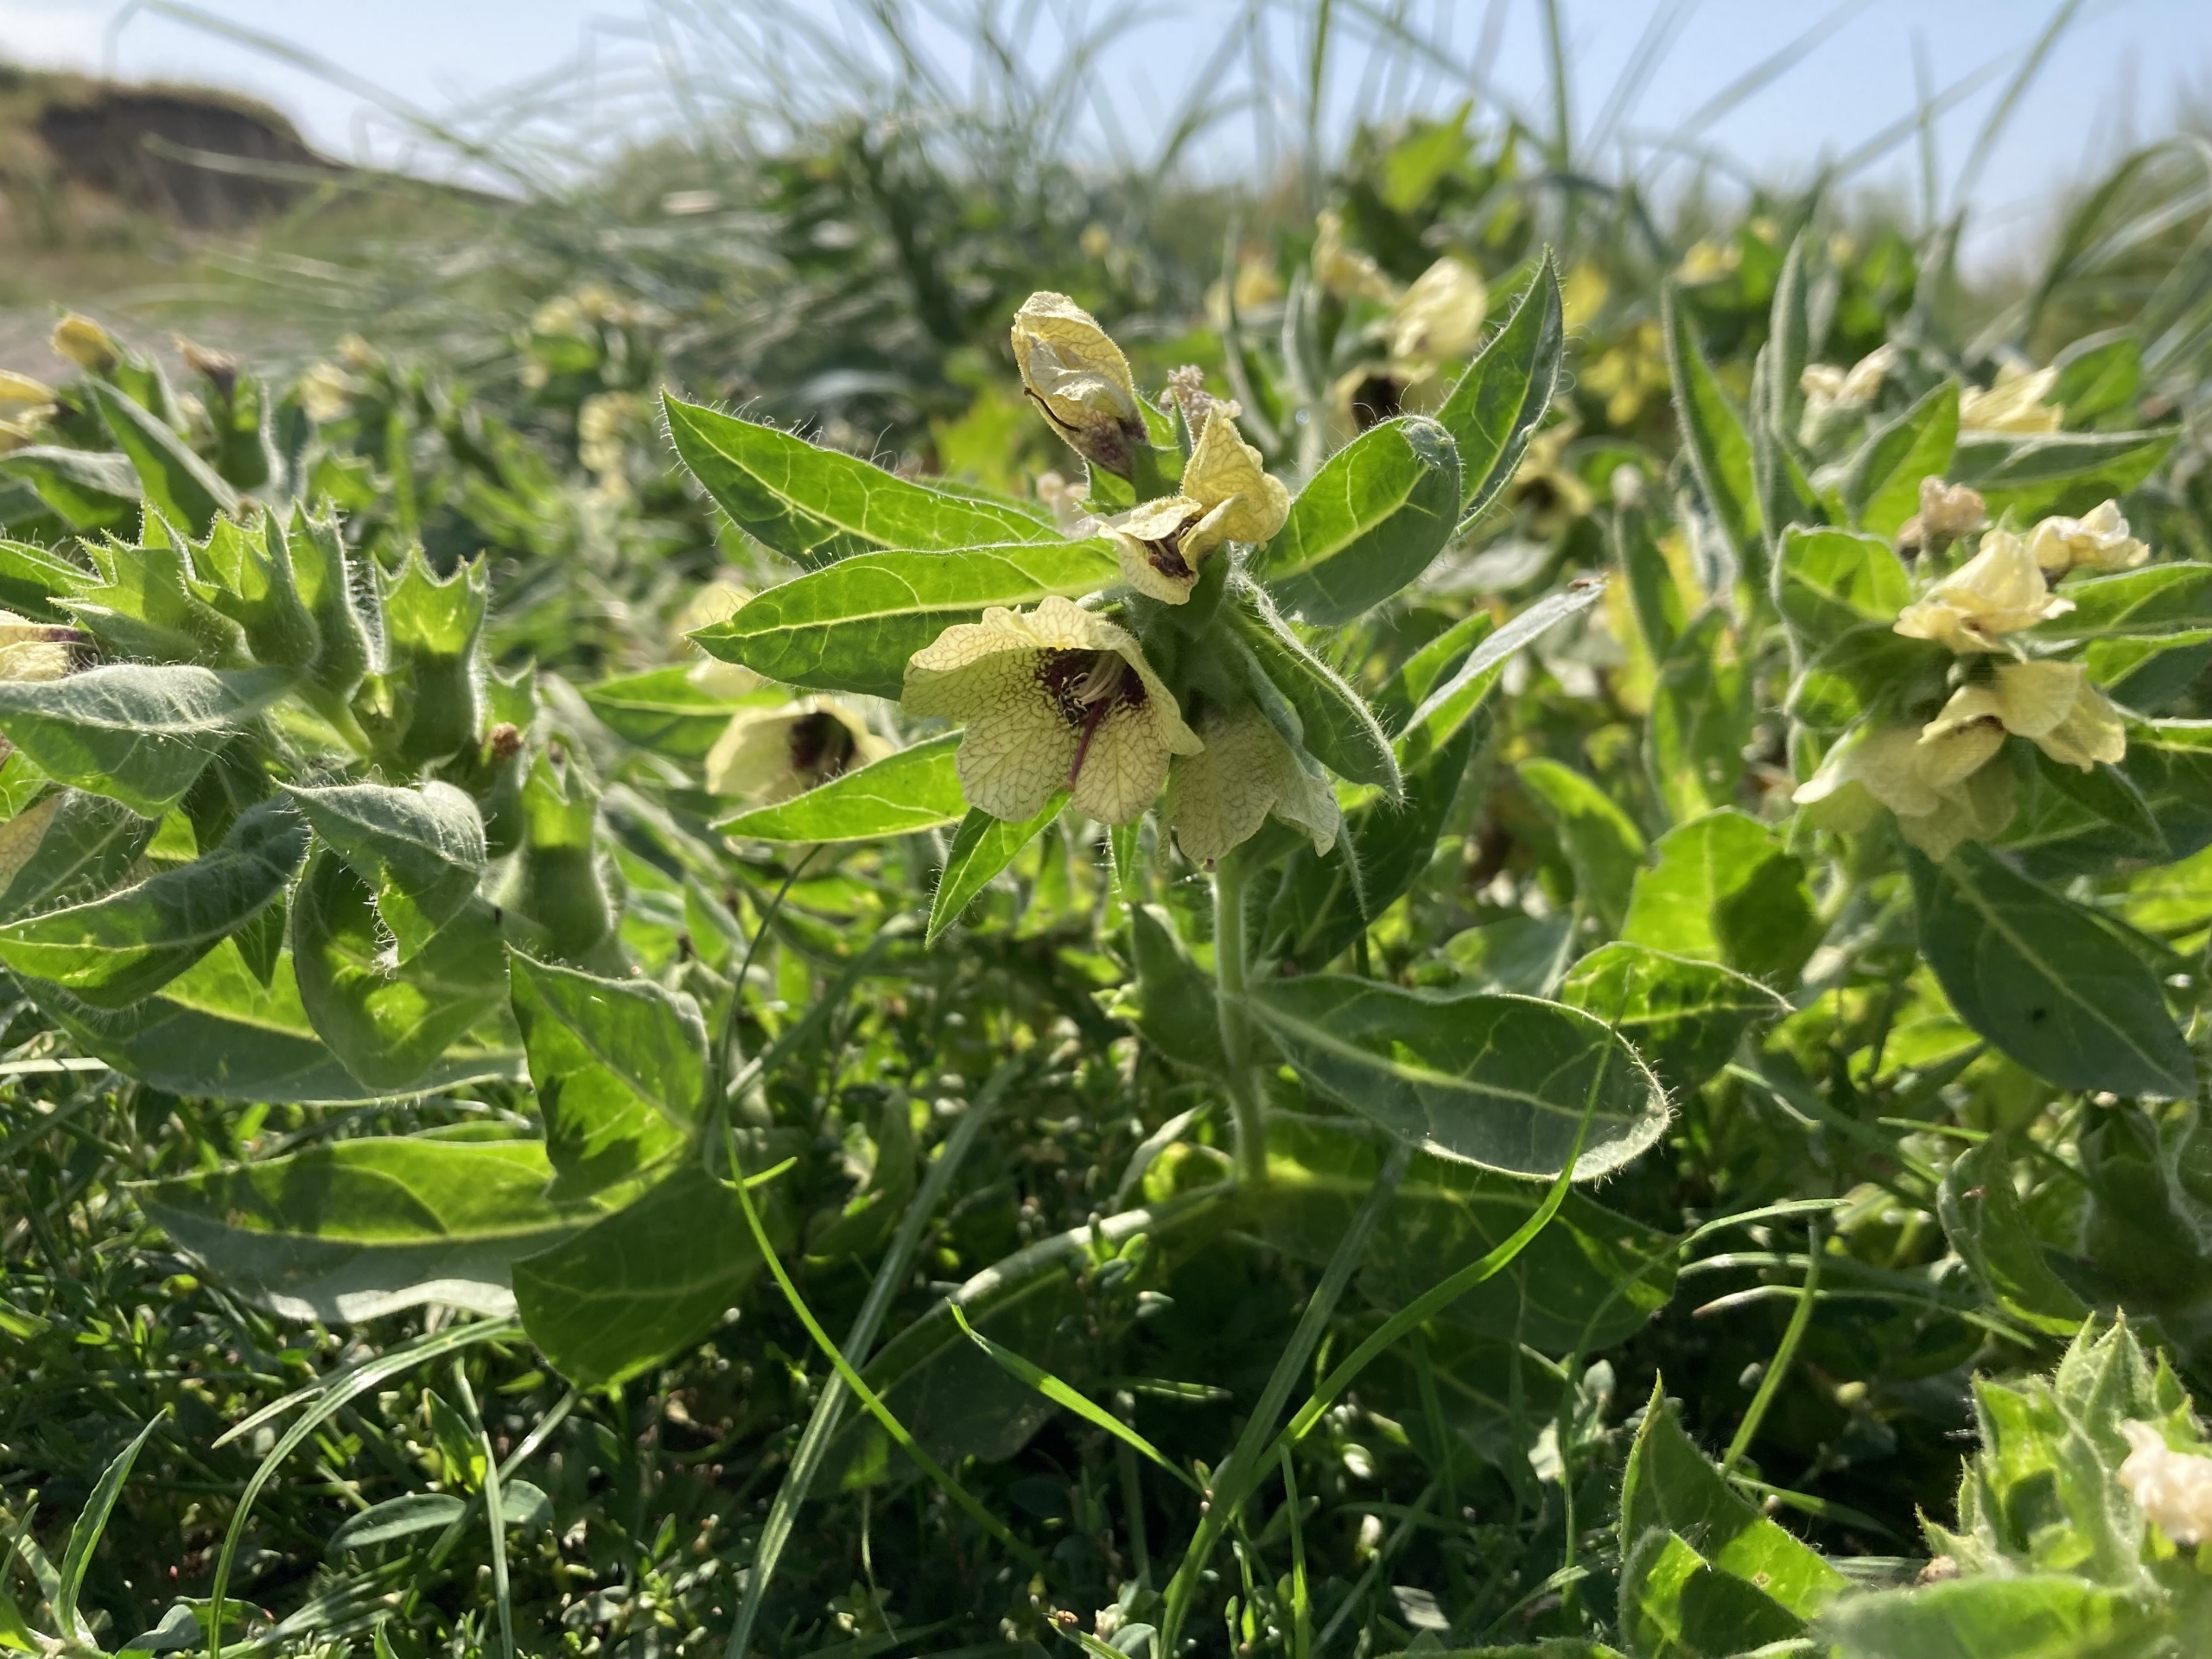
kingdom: Plantae
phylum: Tracheophyta
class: Magnoliopsida
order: Solanales
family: Solanaceae
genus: Hyoscyamus
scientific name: Hyoscyamus niger
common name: Bulmeurt
